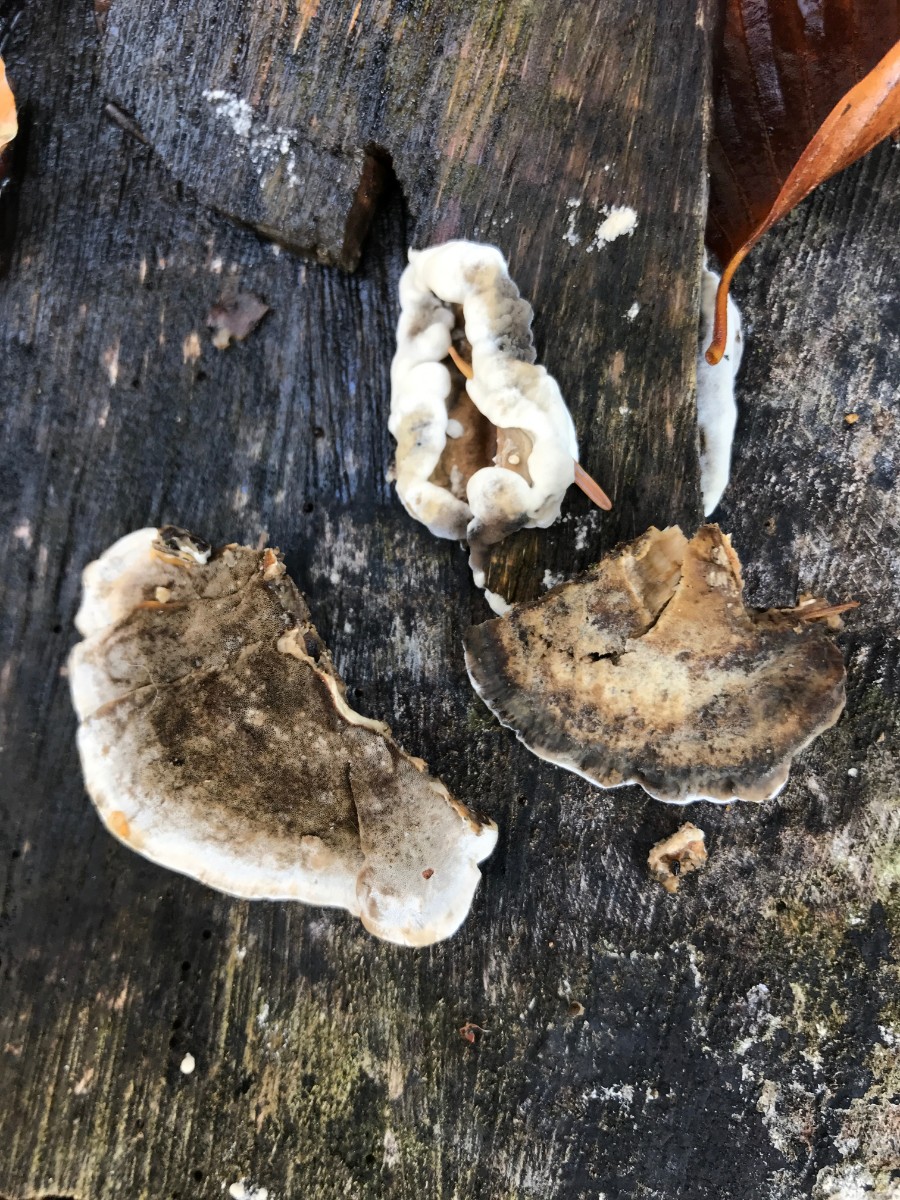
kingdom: Fungi
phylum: Basidiomycota
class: Agaricomycetes
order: Polyporales
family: Phanerochaetaceae
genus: Bjerkandera
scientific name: Bjerkandera adusta
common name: sveden sodporesvamp
